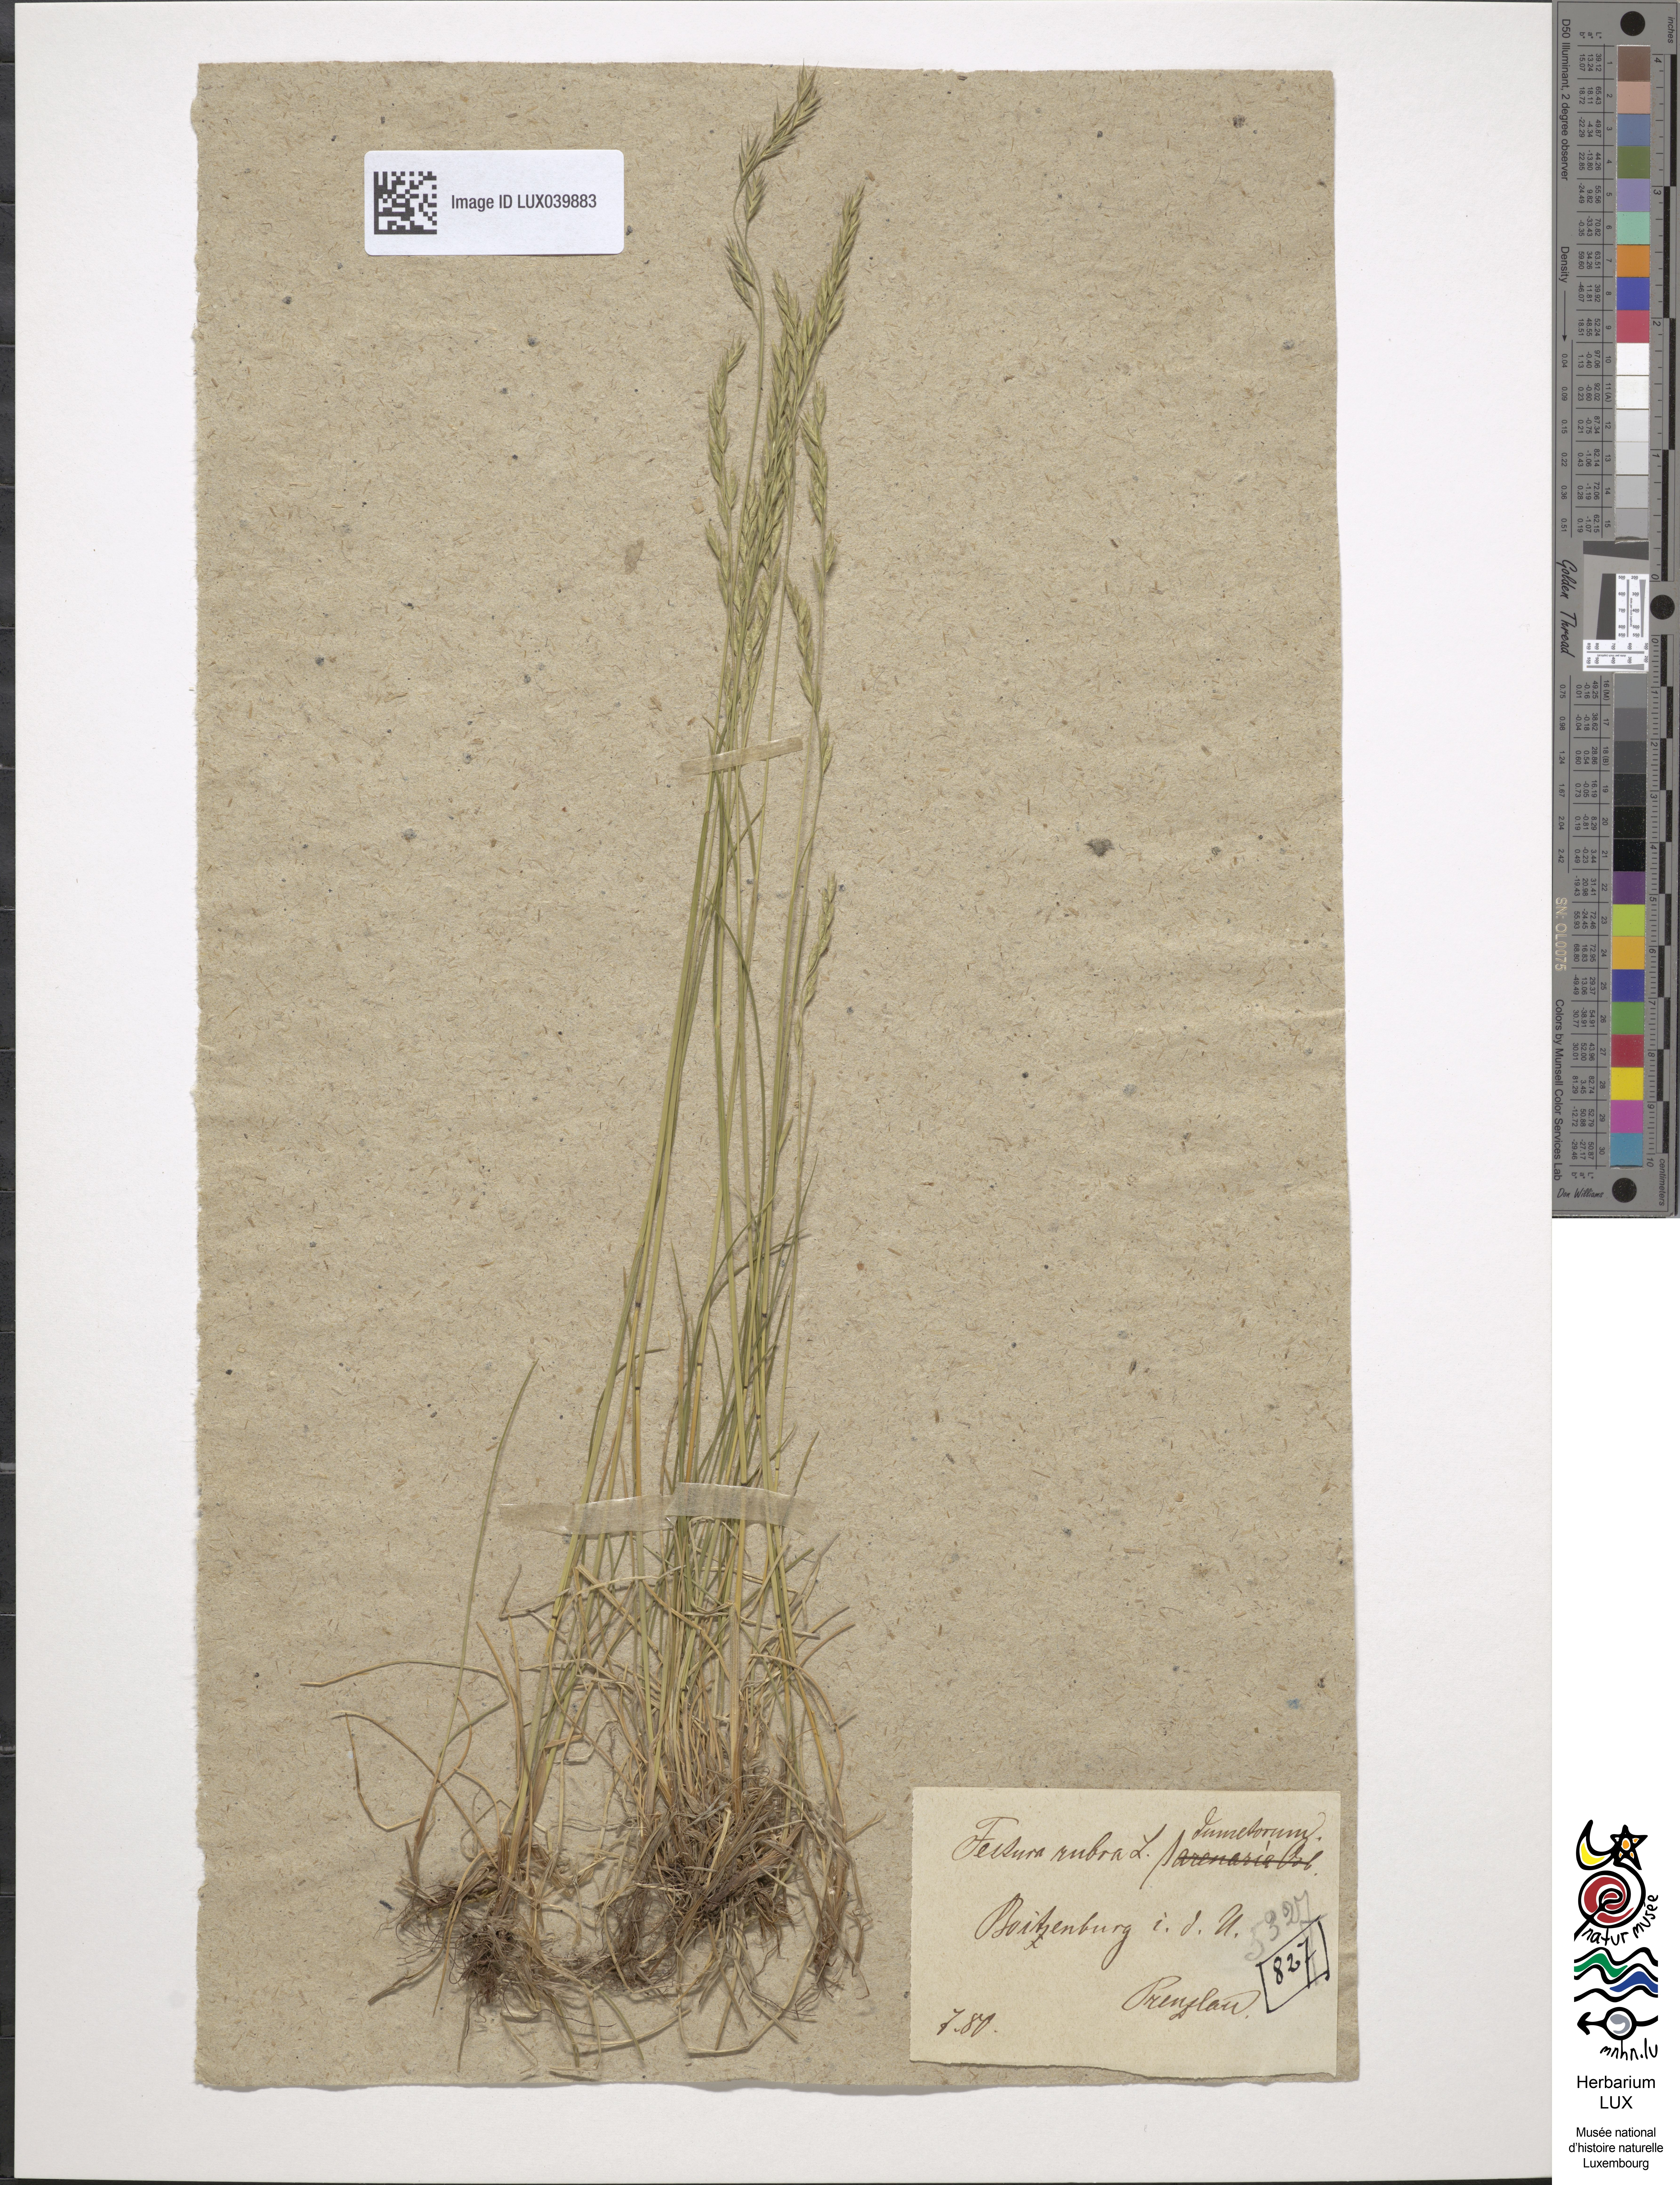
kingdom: Plantae
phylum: Tracheophyta
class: Liliopsida
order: Poales
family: Poaceae
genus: Festuca
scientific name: Festuca rubra
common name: Red fescue
